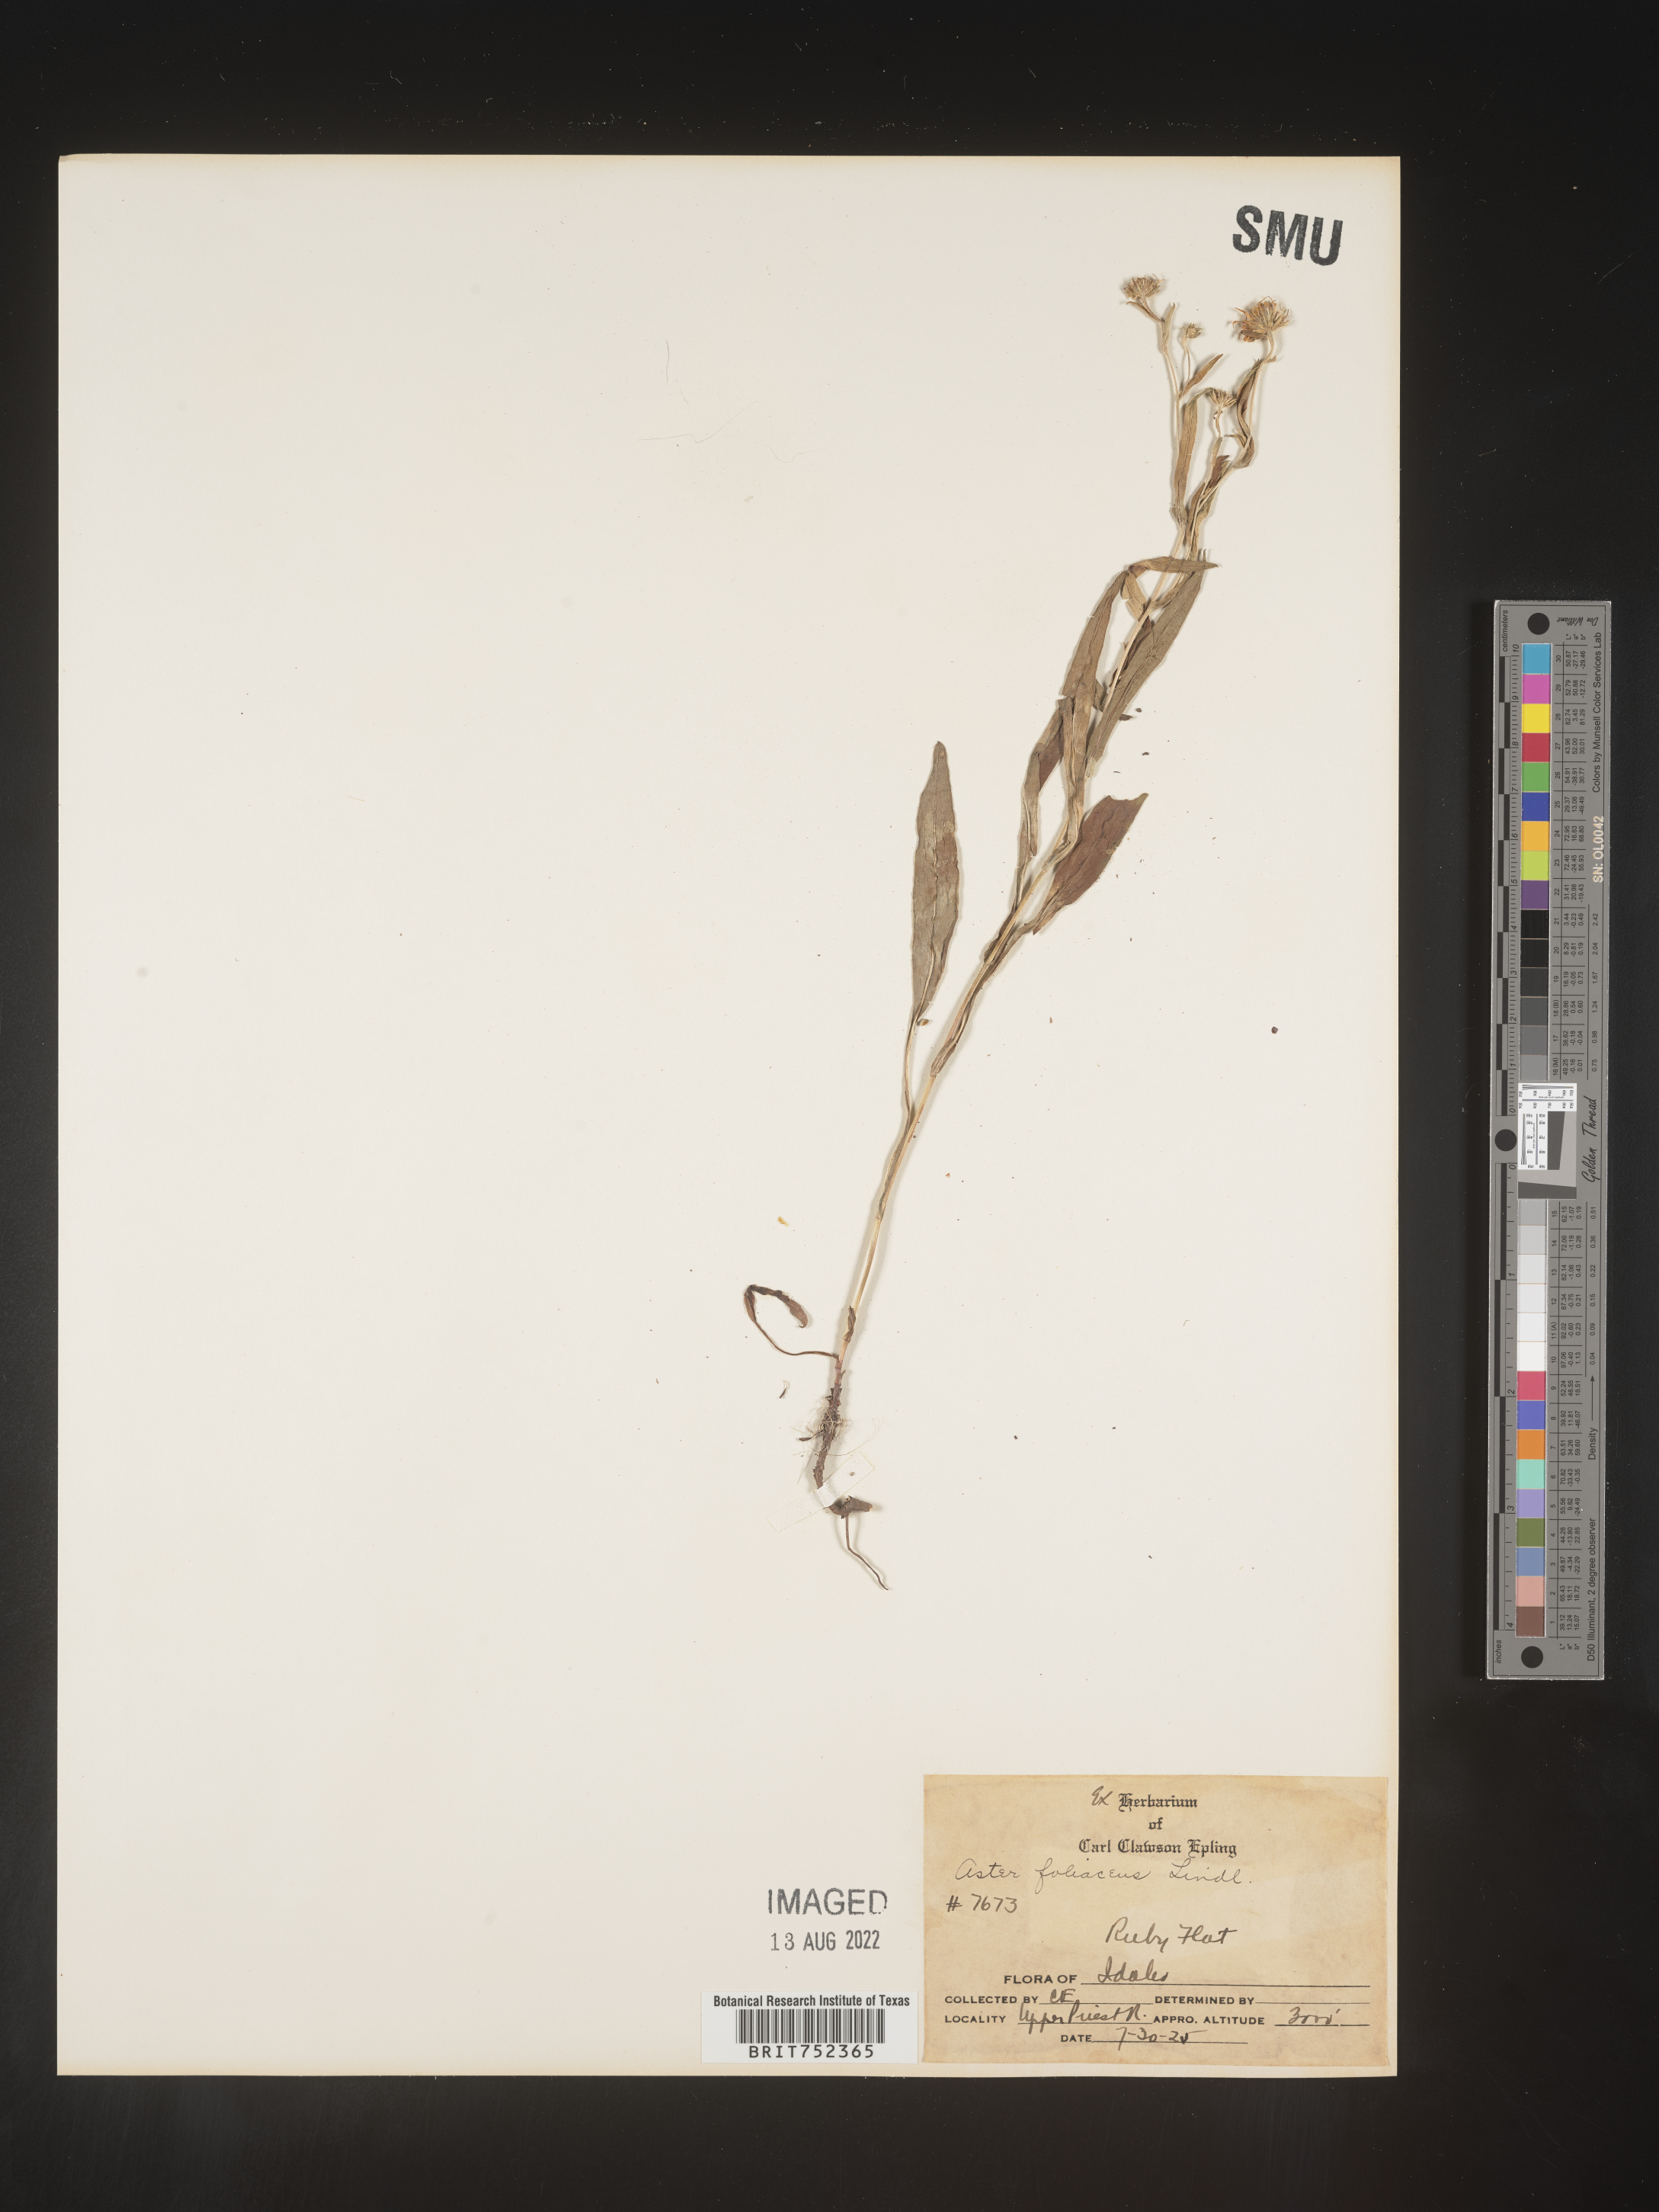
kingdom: Plantae
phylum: Tracheophyta
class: Magnoliopsida
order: Asterales
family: Asteraceae
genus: Symphyotrichum
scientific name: Symphyotrichum foliaceum
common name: Leafy aster
